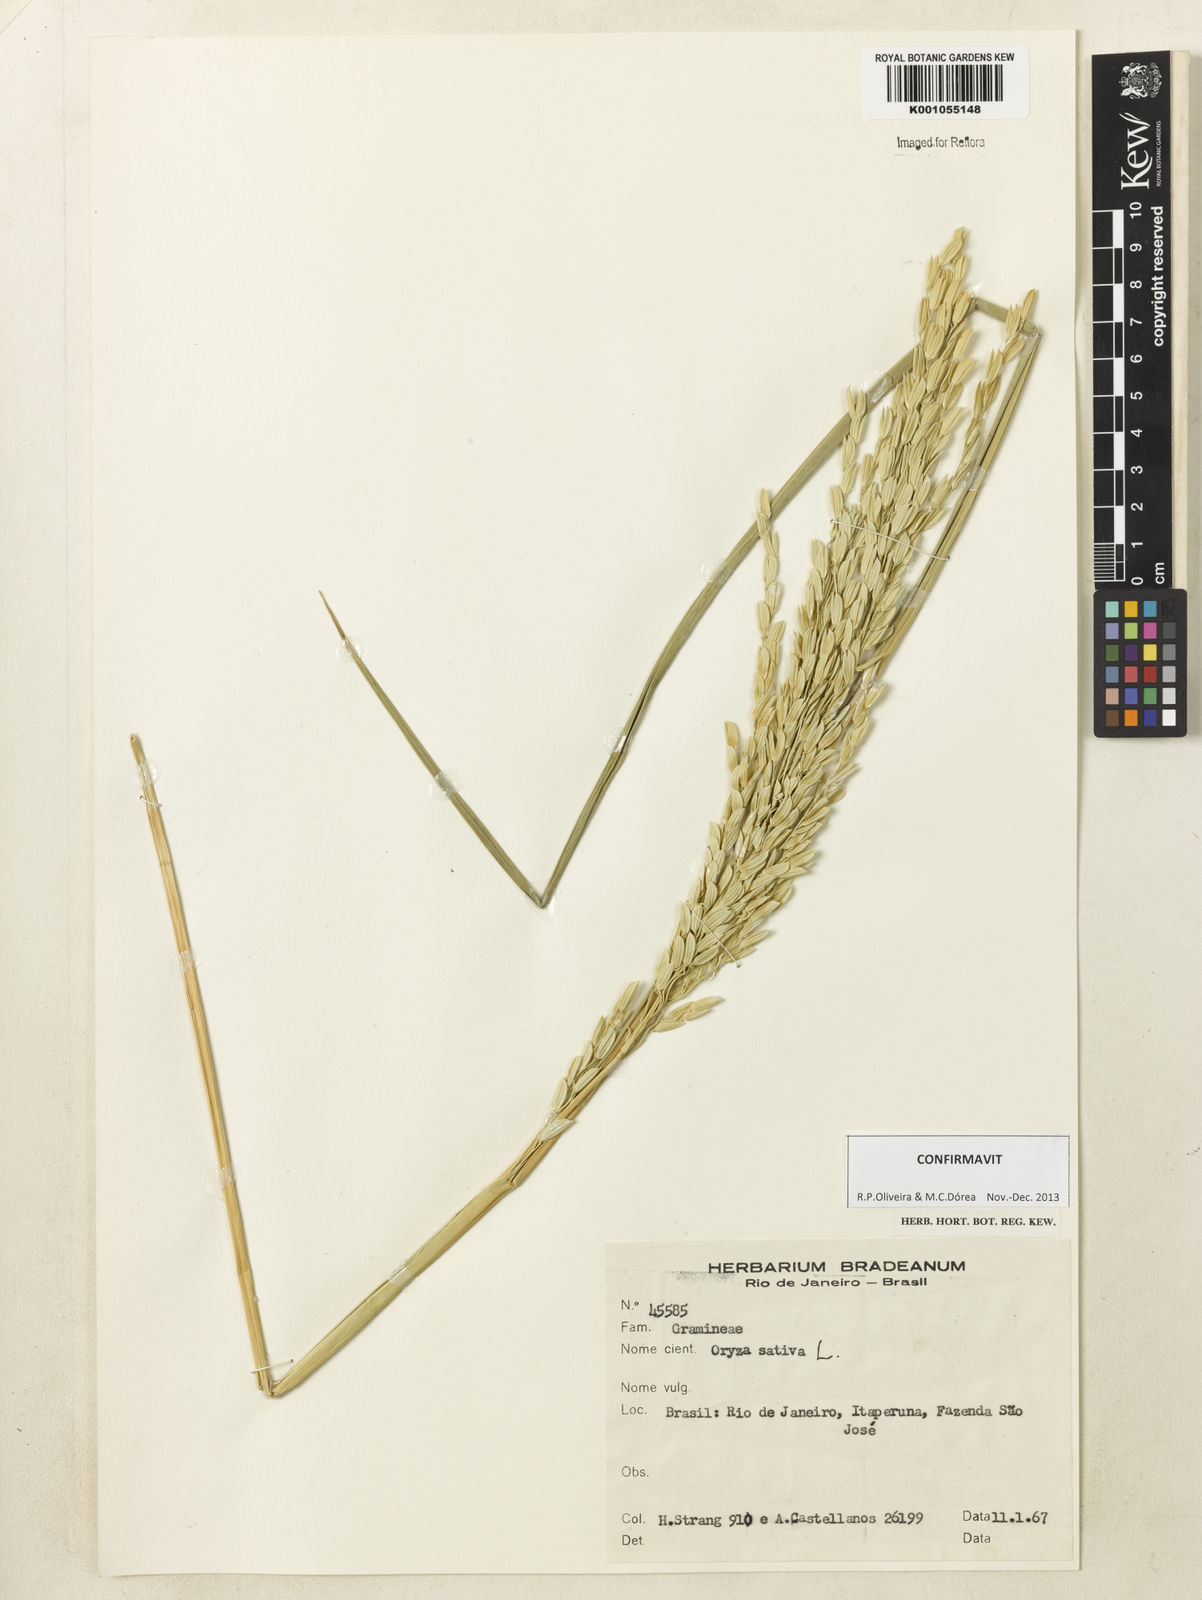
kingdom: Plantae
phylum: Tracheophyta
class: Liliopsida
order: Poales
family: Poaceae
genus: Oryza
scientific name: Oryza sativa
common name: Rice
